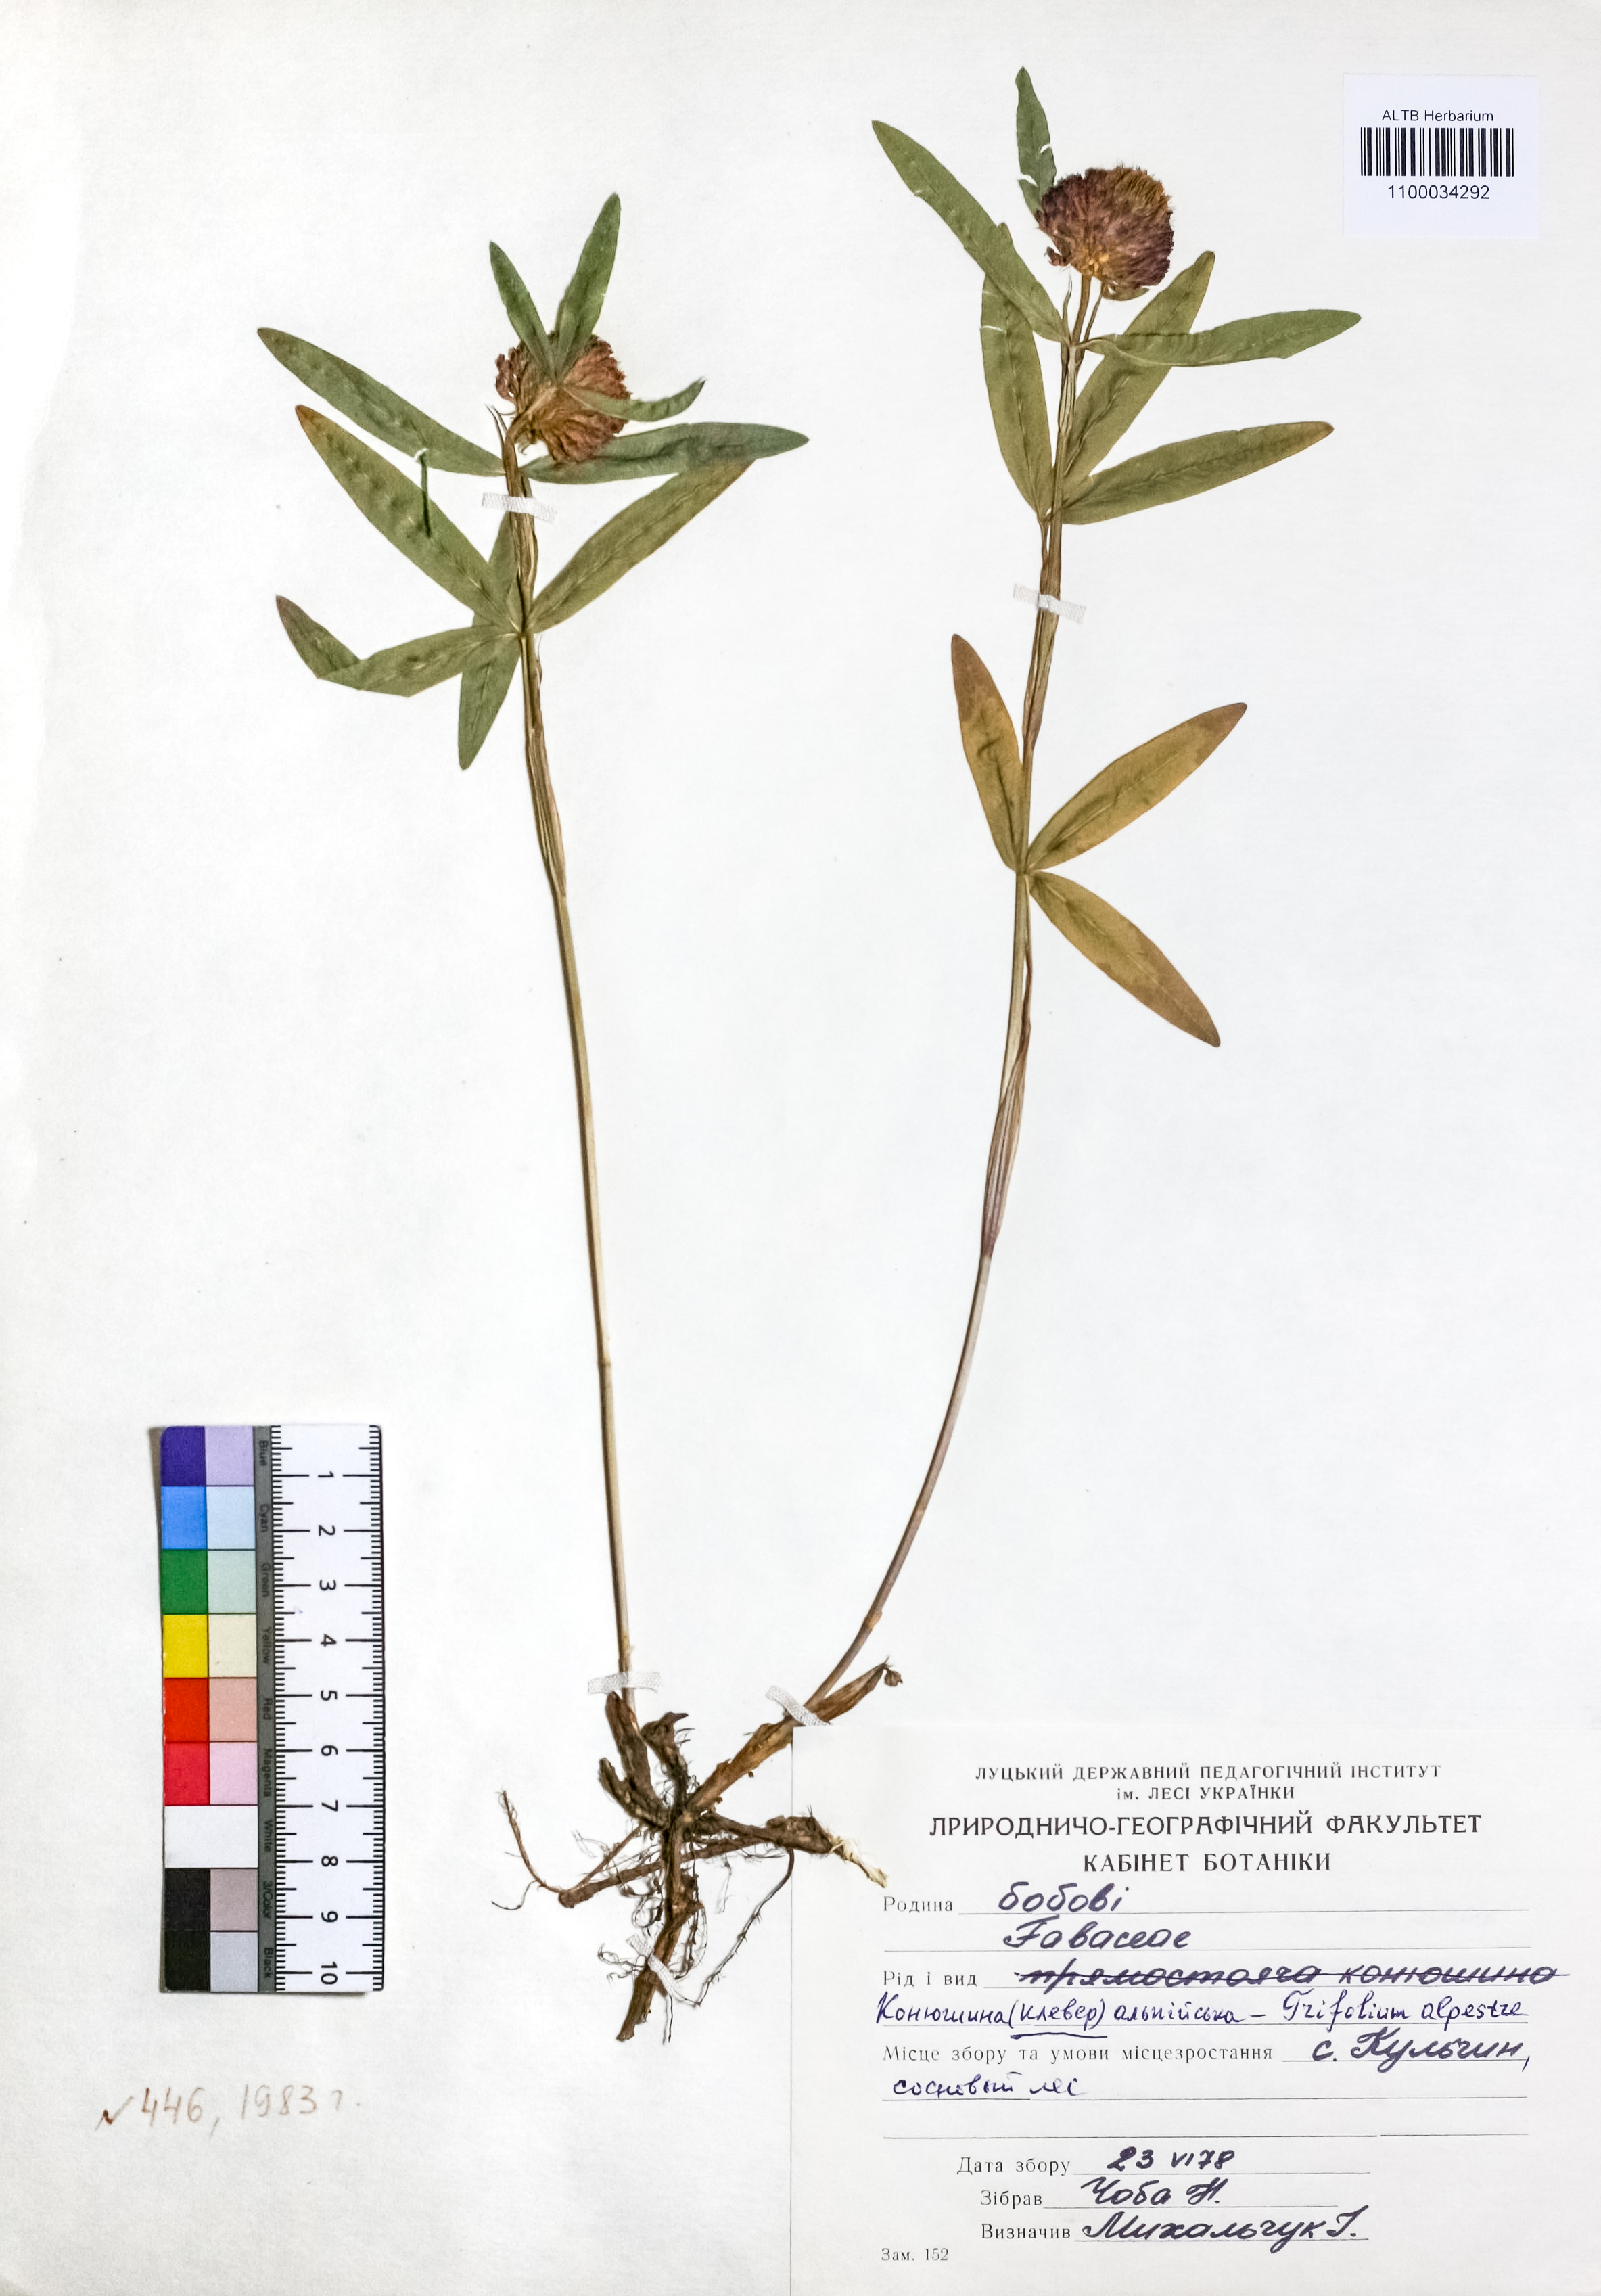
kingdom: Plantae
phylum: Tracheophyta
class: Magnoliopsida
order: Fabales
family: Fabaceae
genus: Trifolium
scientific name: Trifolium alpestre
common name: Owl-head clover
